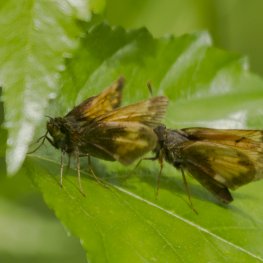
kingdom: Animalia
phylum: Arthropoda
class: Insecta
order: Lepidoptera
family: Hesperiidae
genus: Lon
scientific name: Lon hobomok
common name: Hobomok Skipper
